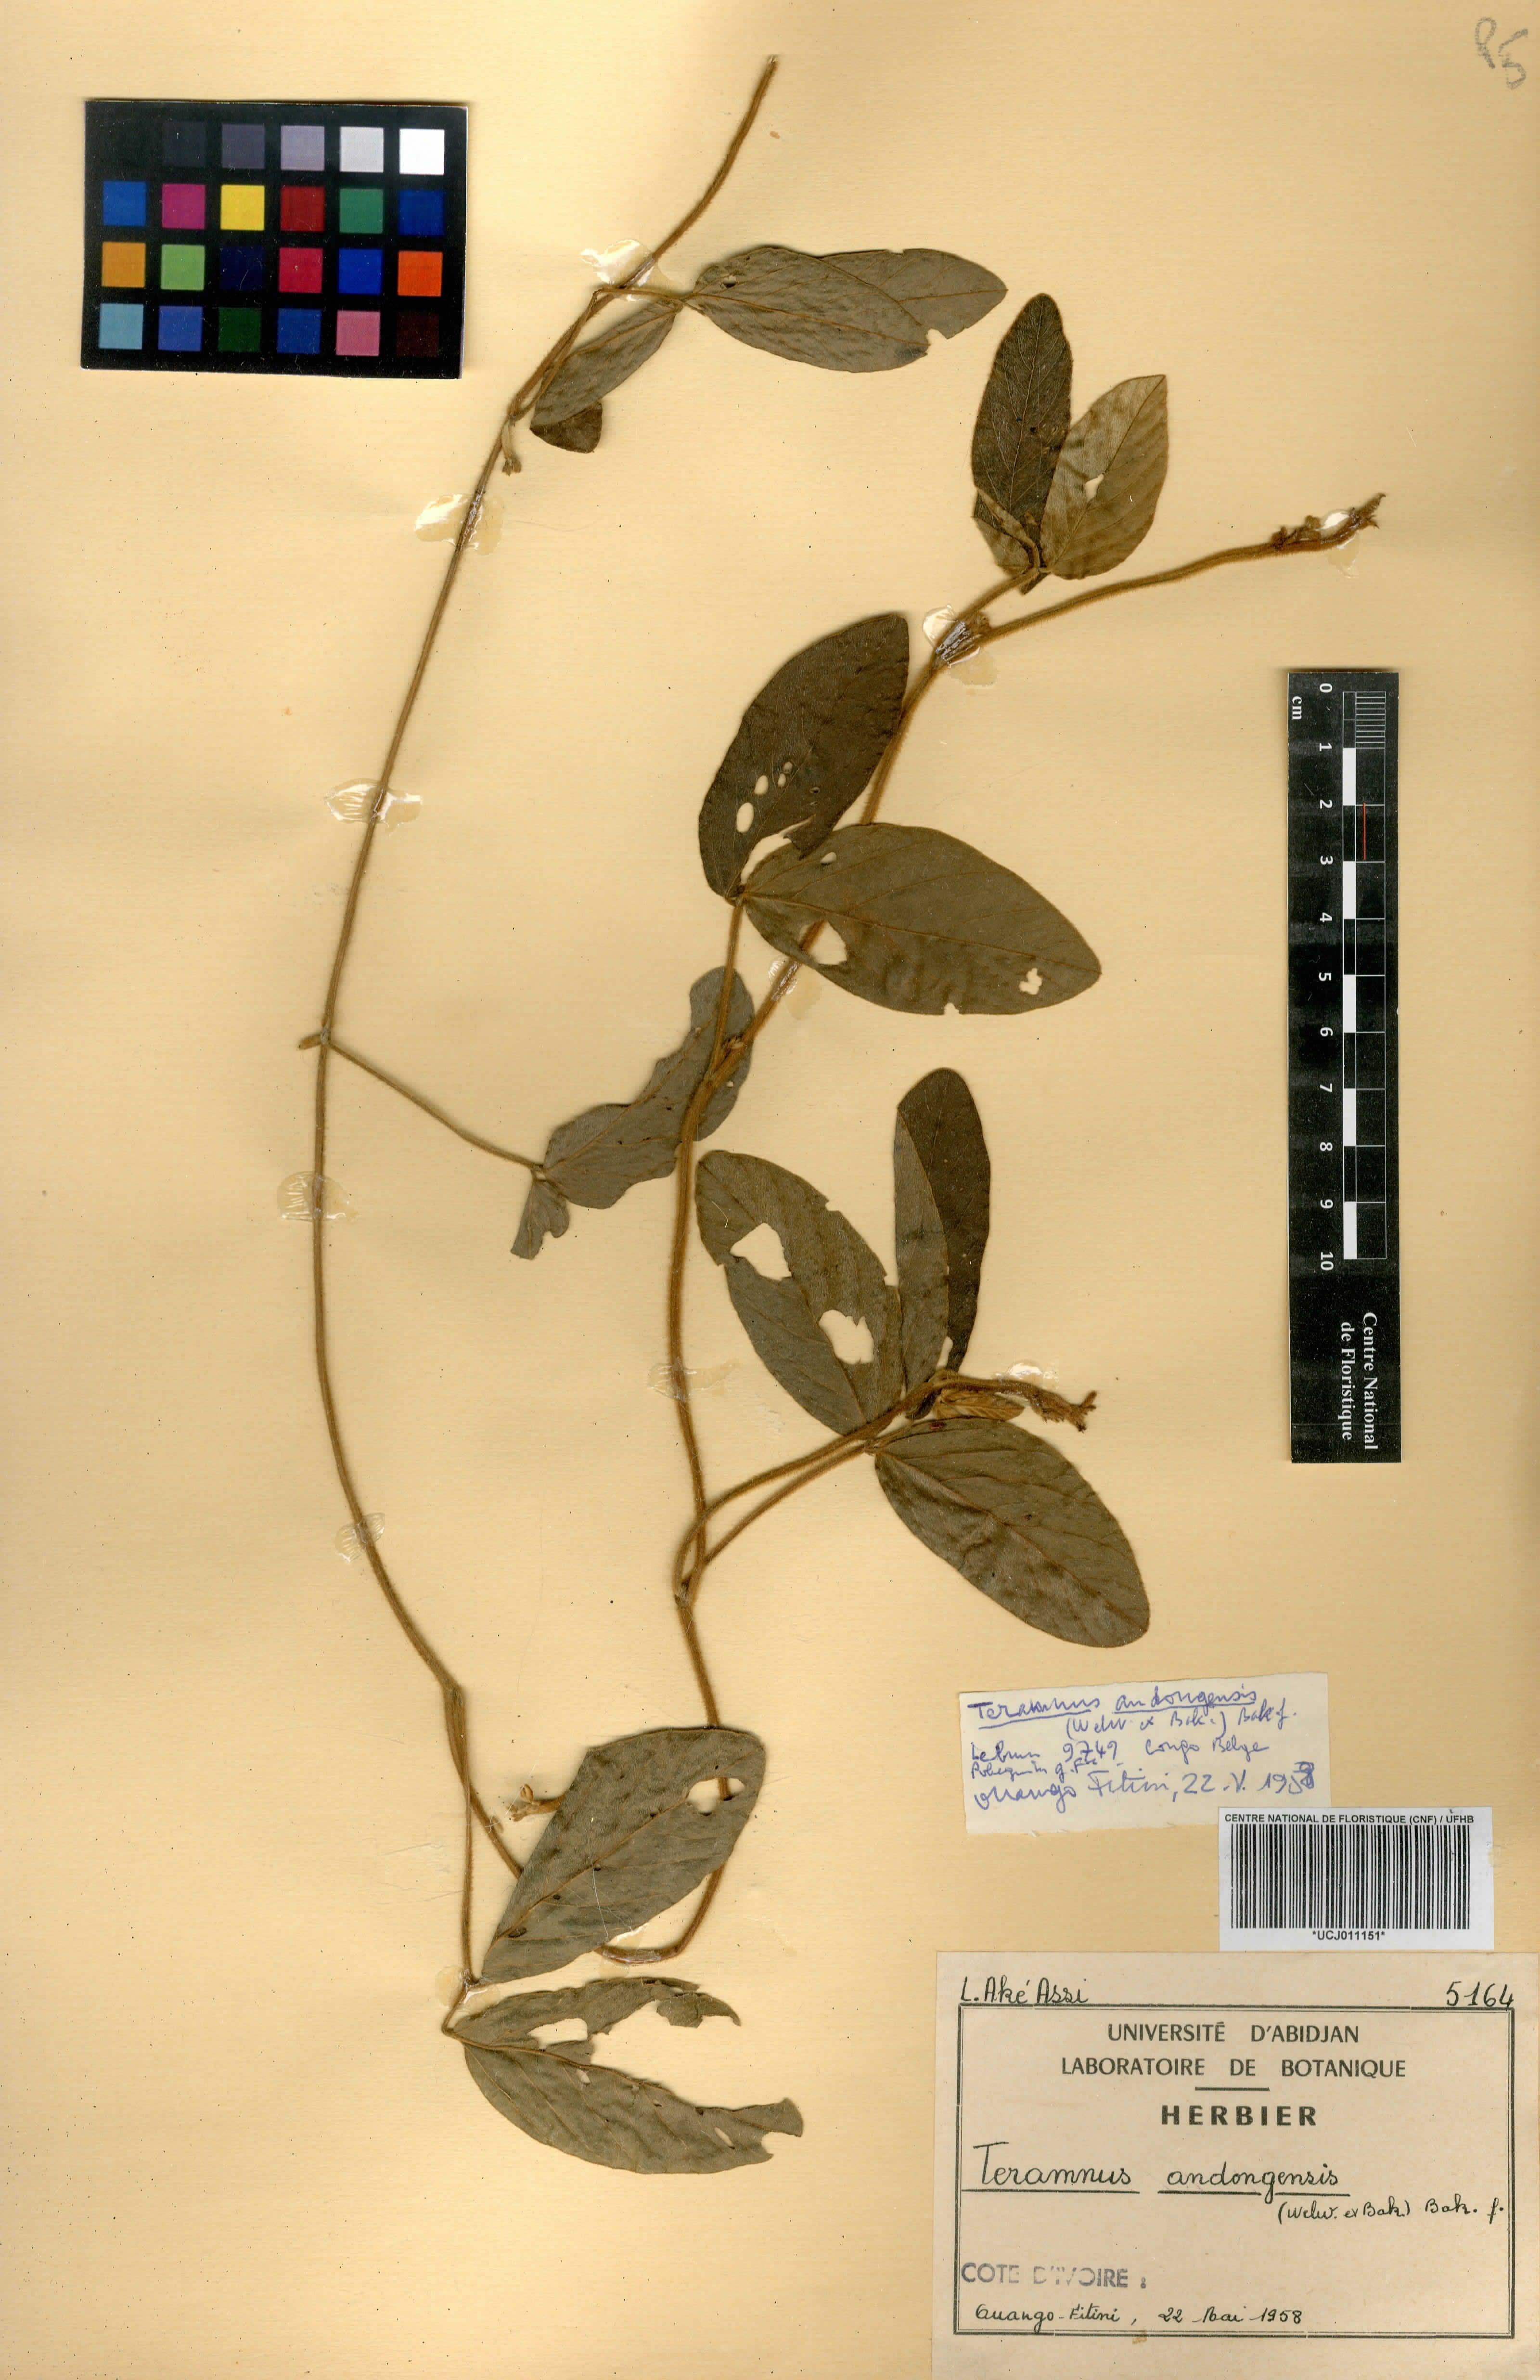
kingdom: Plantae
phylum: Tracheophyta
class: Magnoliopsida
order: Fabales
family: Fabaceae
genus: Teramnus
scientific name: Teramnus uncinatus
